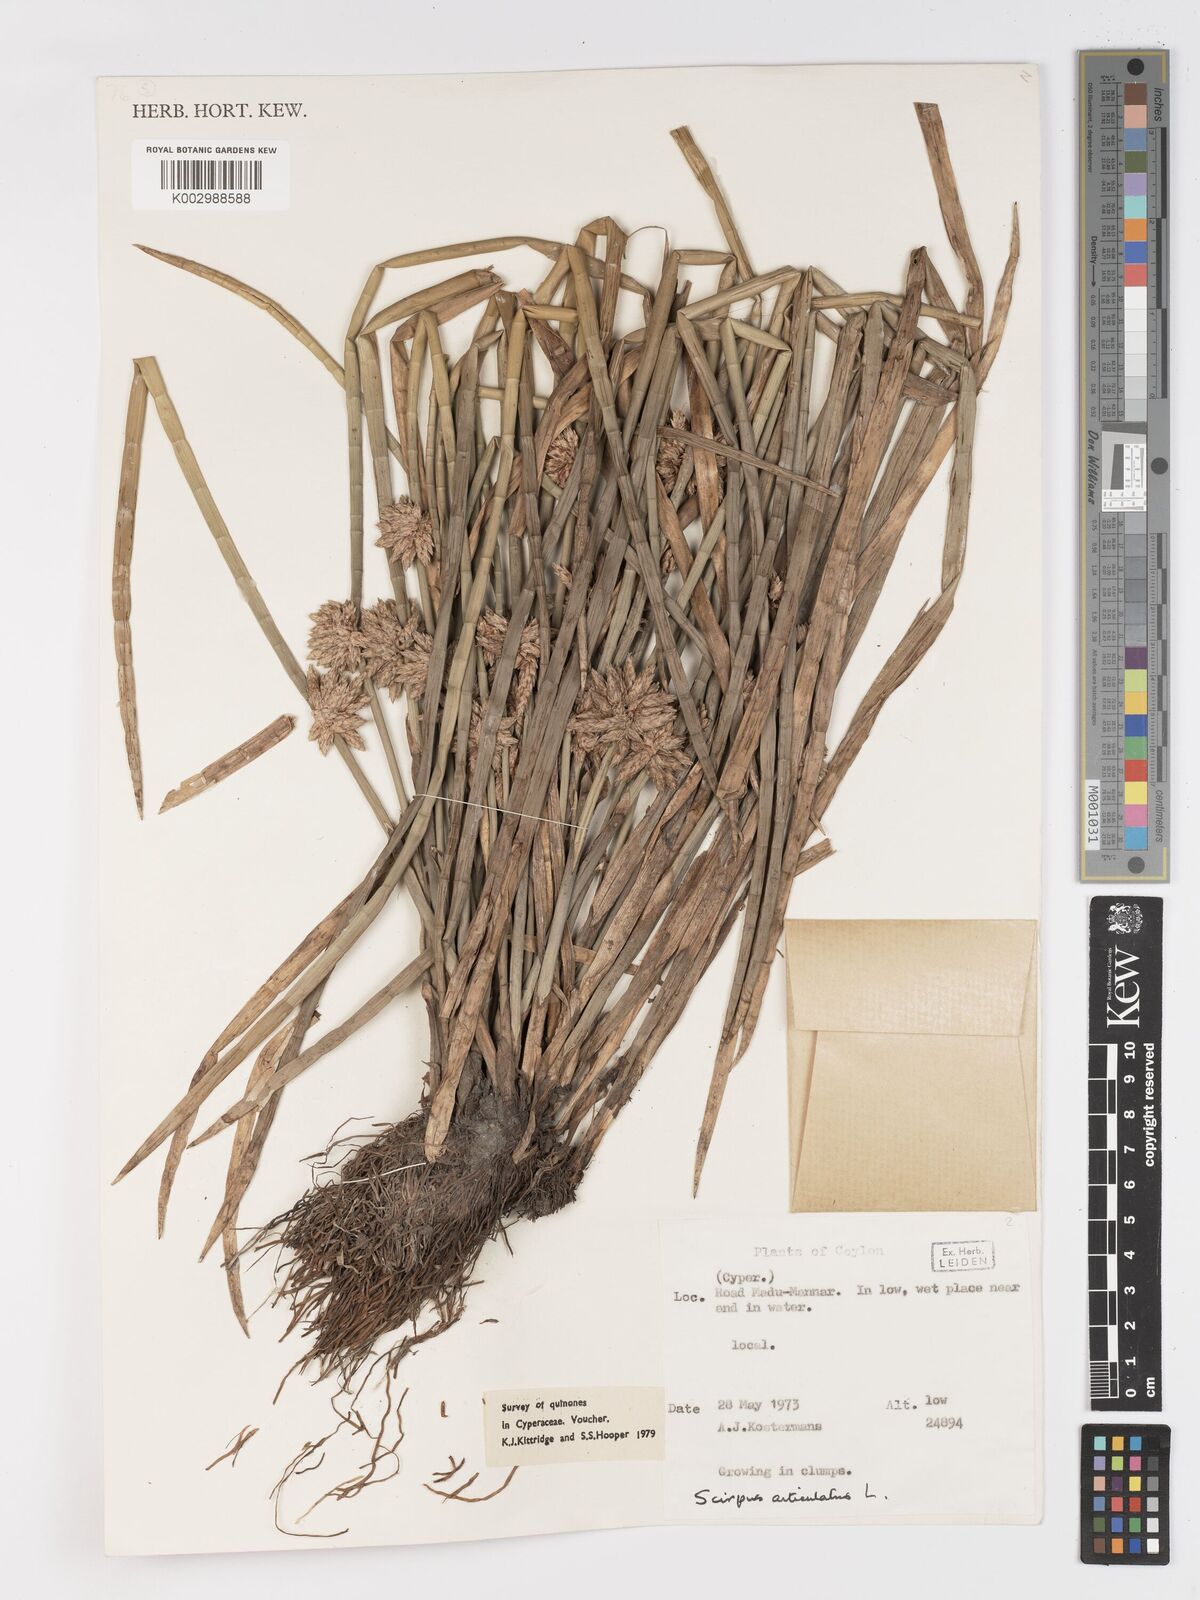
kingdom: Plantae
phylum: Tracheophyta
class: Liliopsida
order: Poales
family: Cyperaceae
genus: Schoenoplectiella
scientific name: Schoenoplectiella articulata
